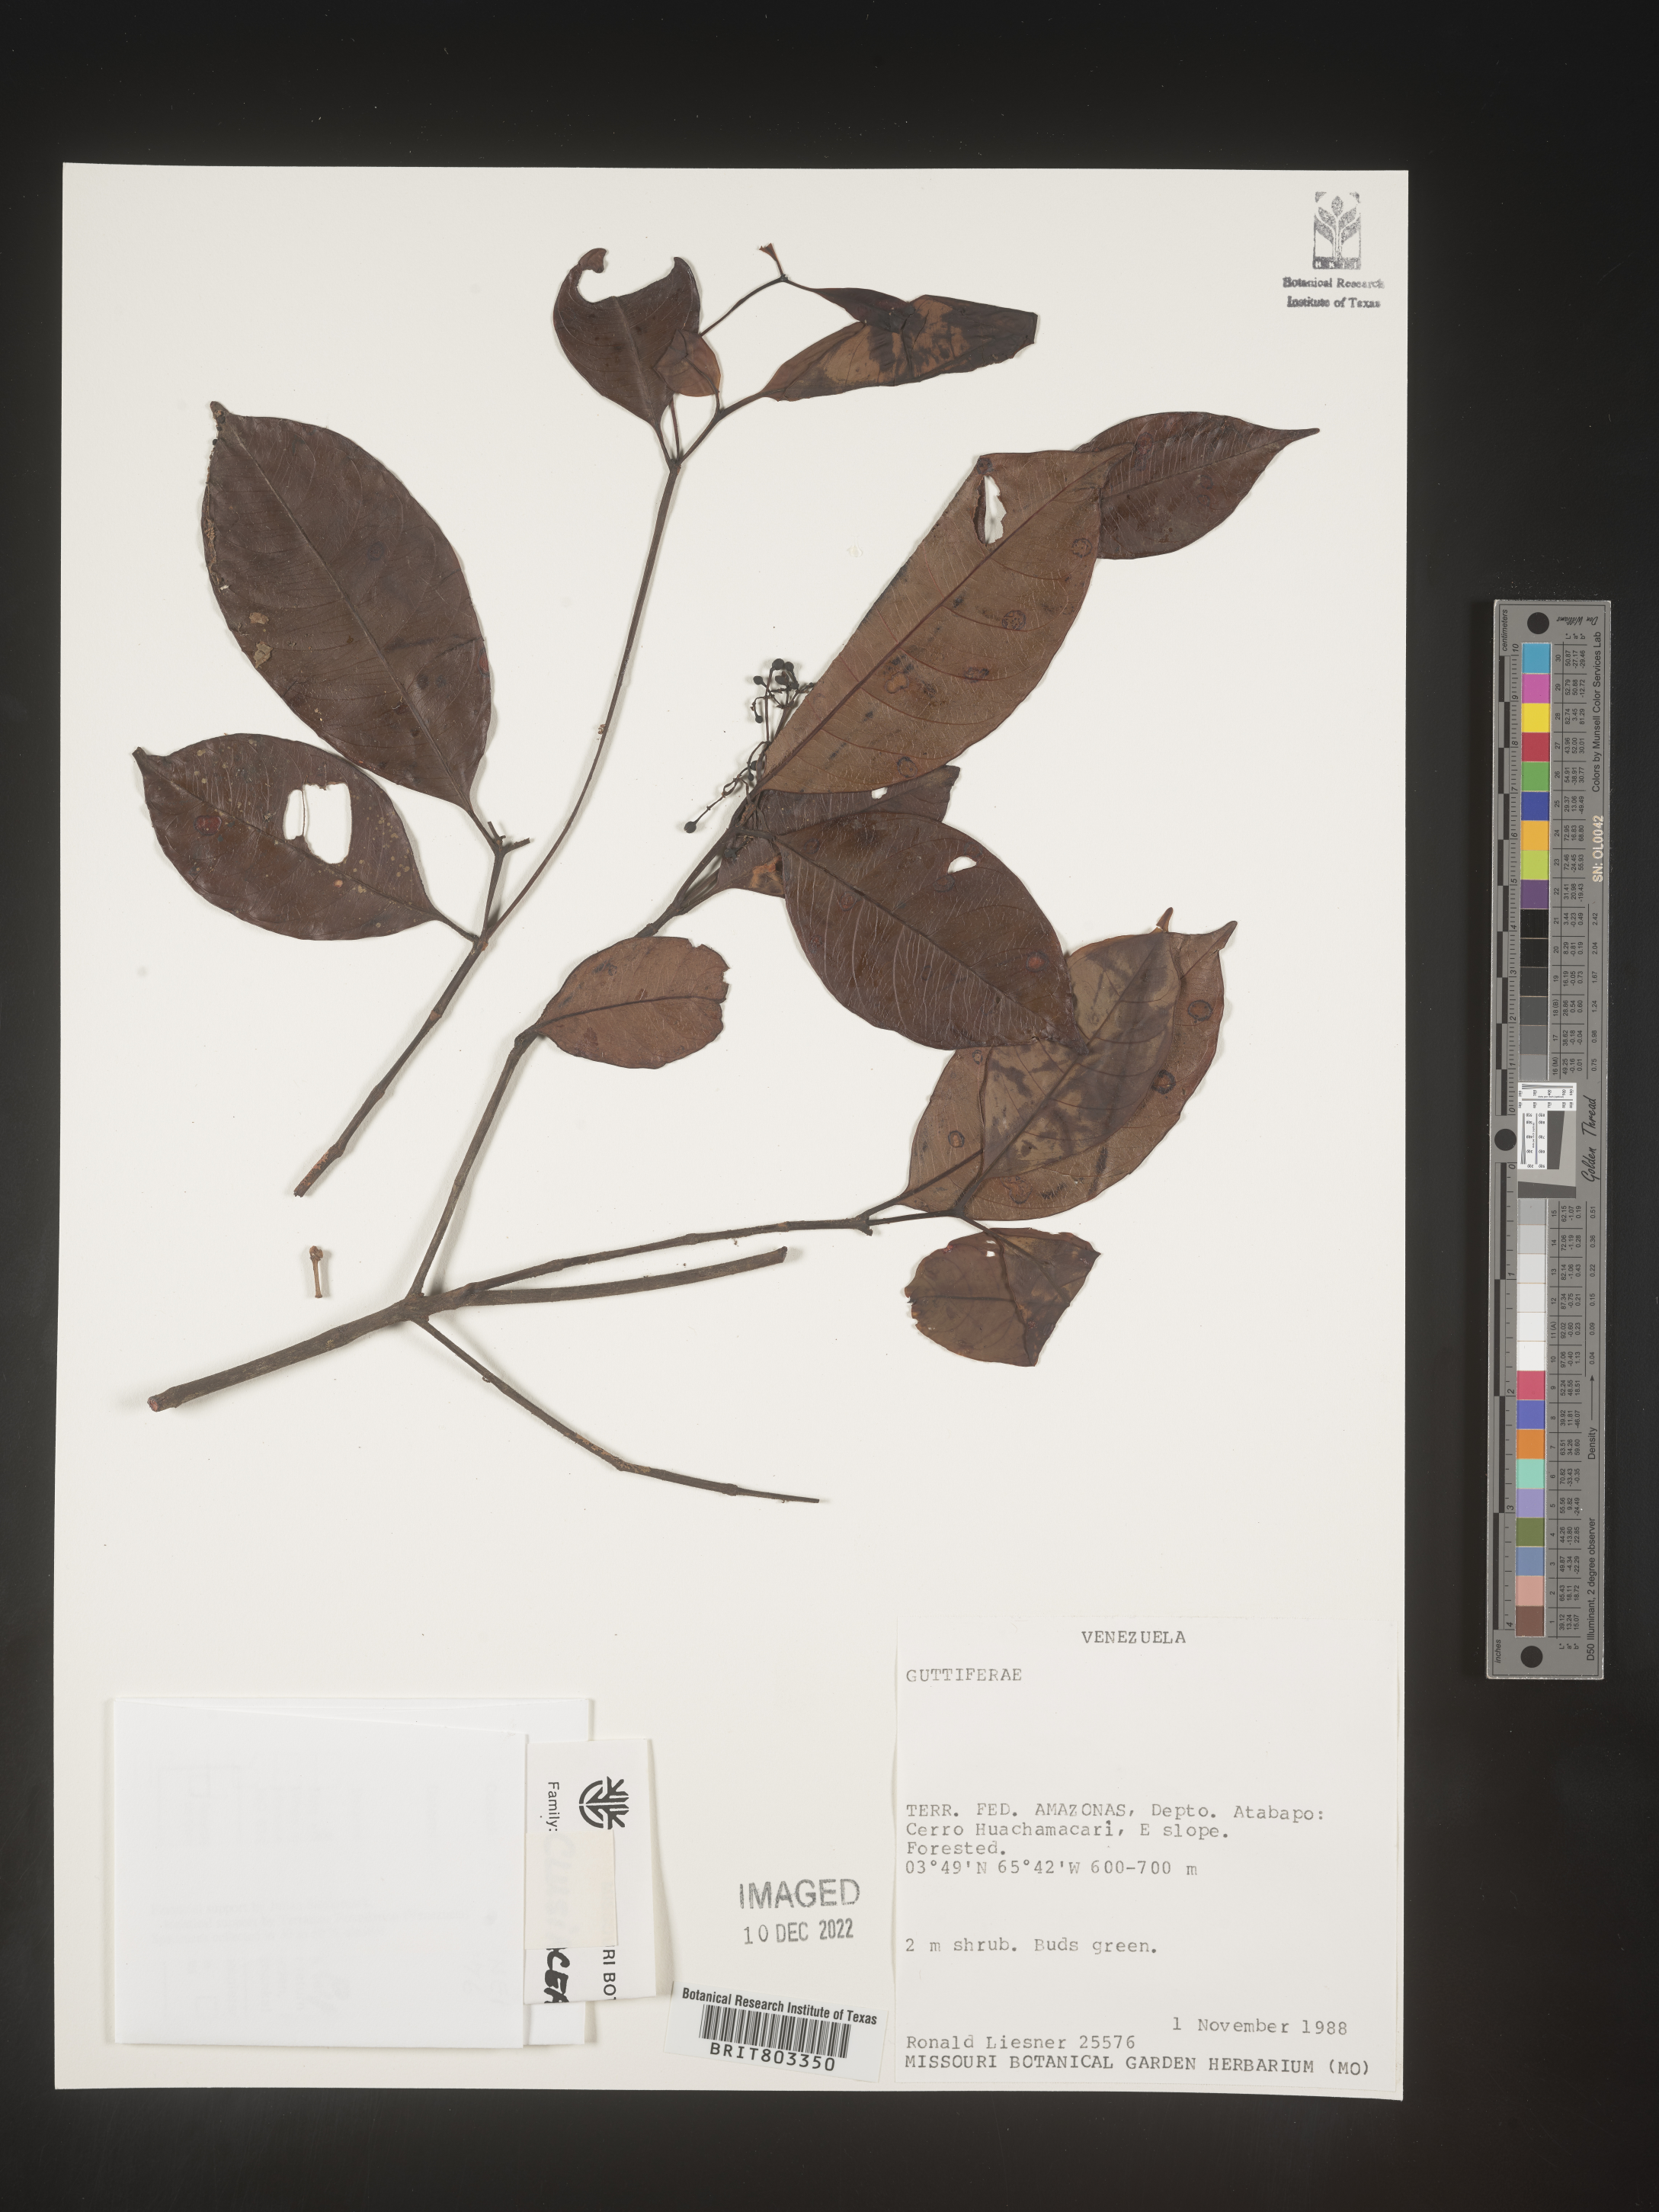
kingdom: Plantae
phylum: Tracheophyta
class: Magnoliopsida
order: Malpighiales
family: Clusiaceae
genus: Tovomita
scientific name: Tovomita
